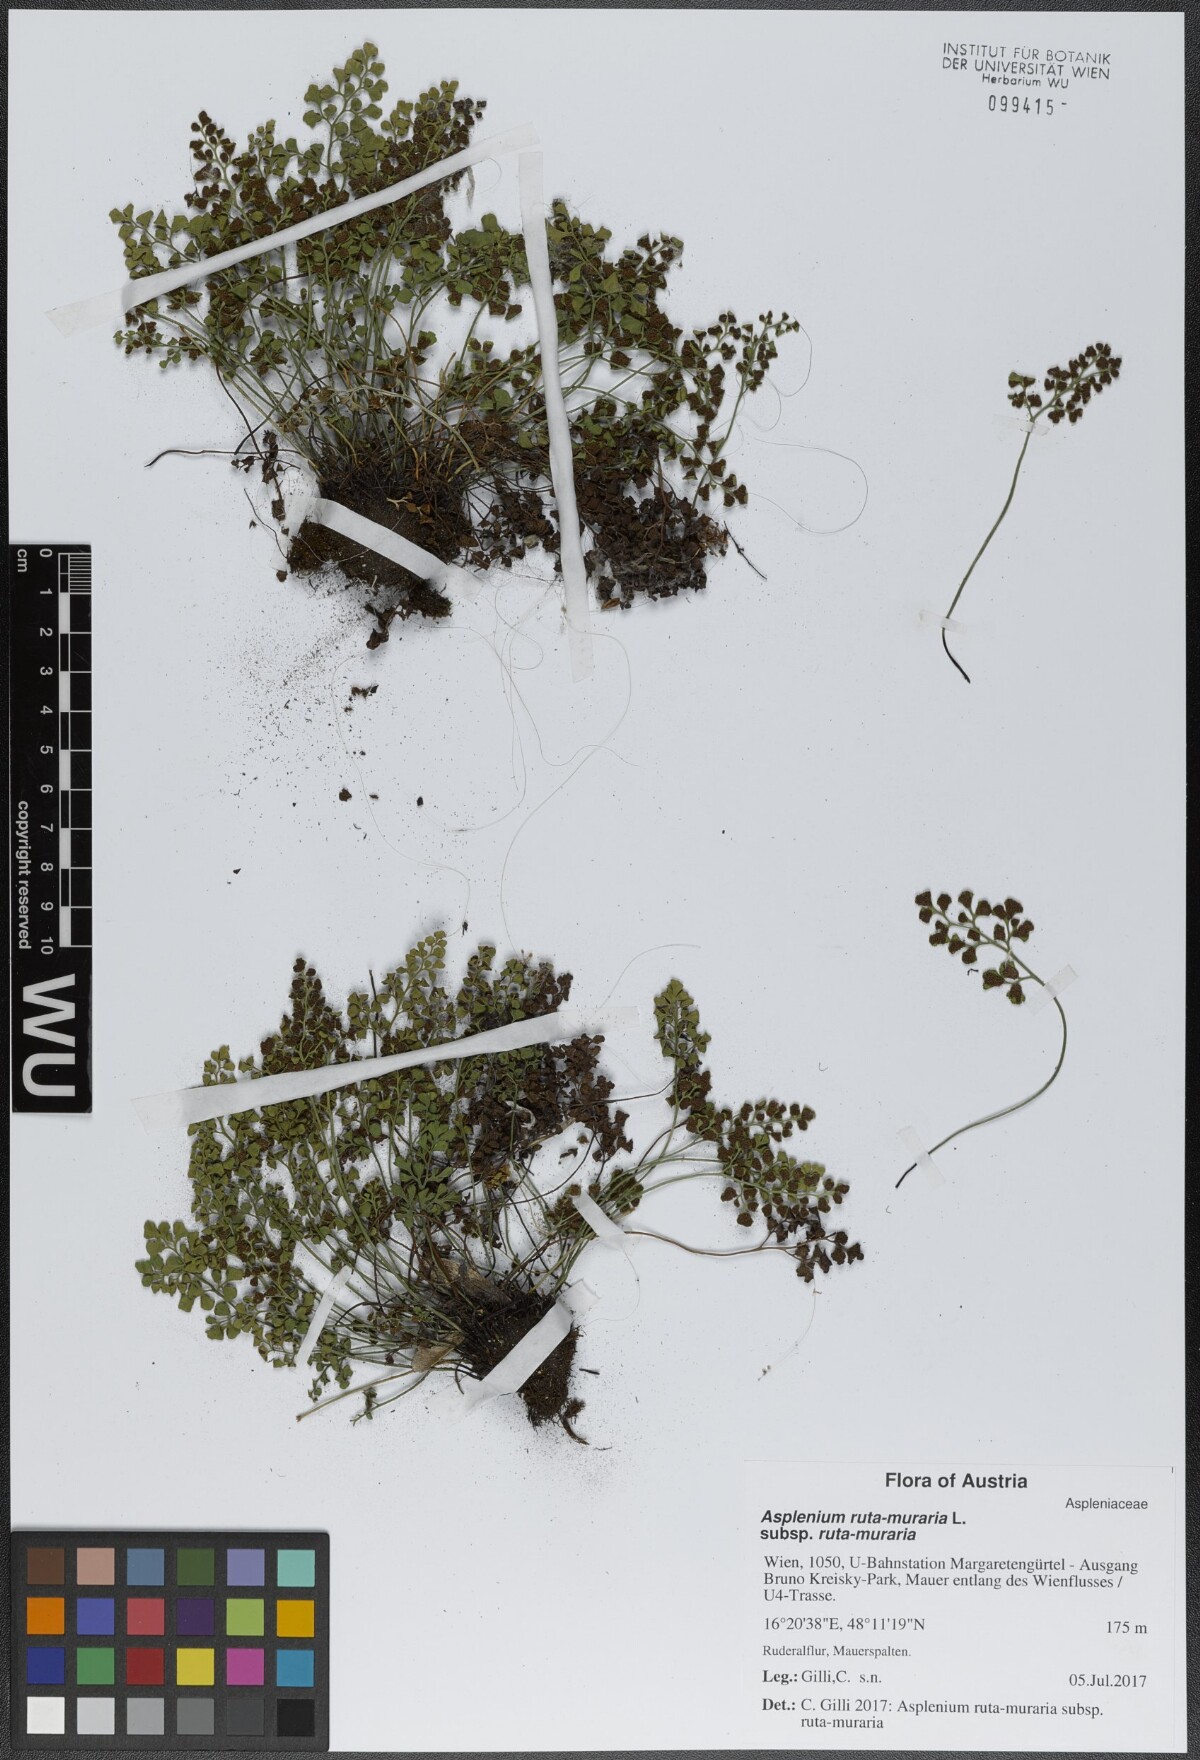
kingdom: Plantae
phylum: Tracheophyta
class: Polypodiopsida
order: Polypodiales
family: Aspleniaceae
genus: Asplenium
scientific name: Asplenium ruta-muraria
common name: Wall-rue
